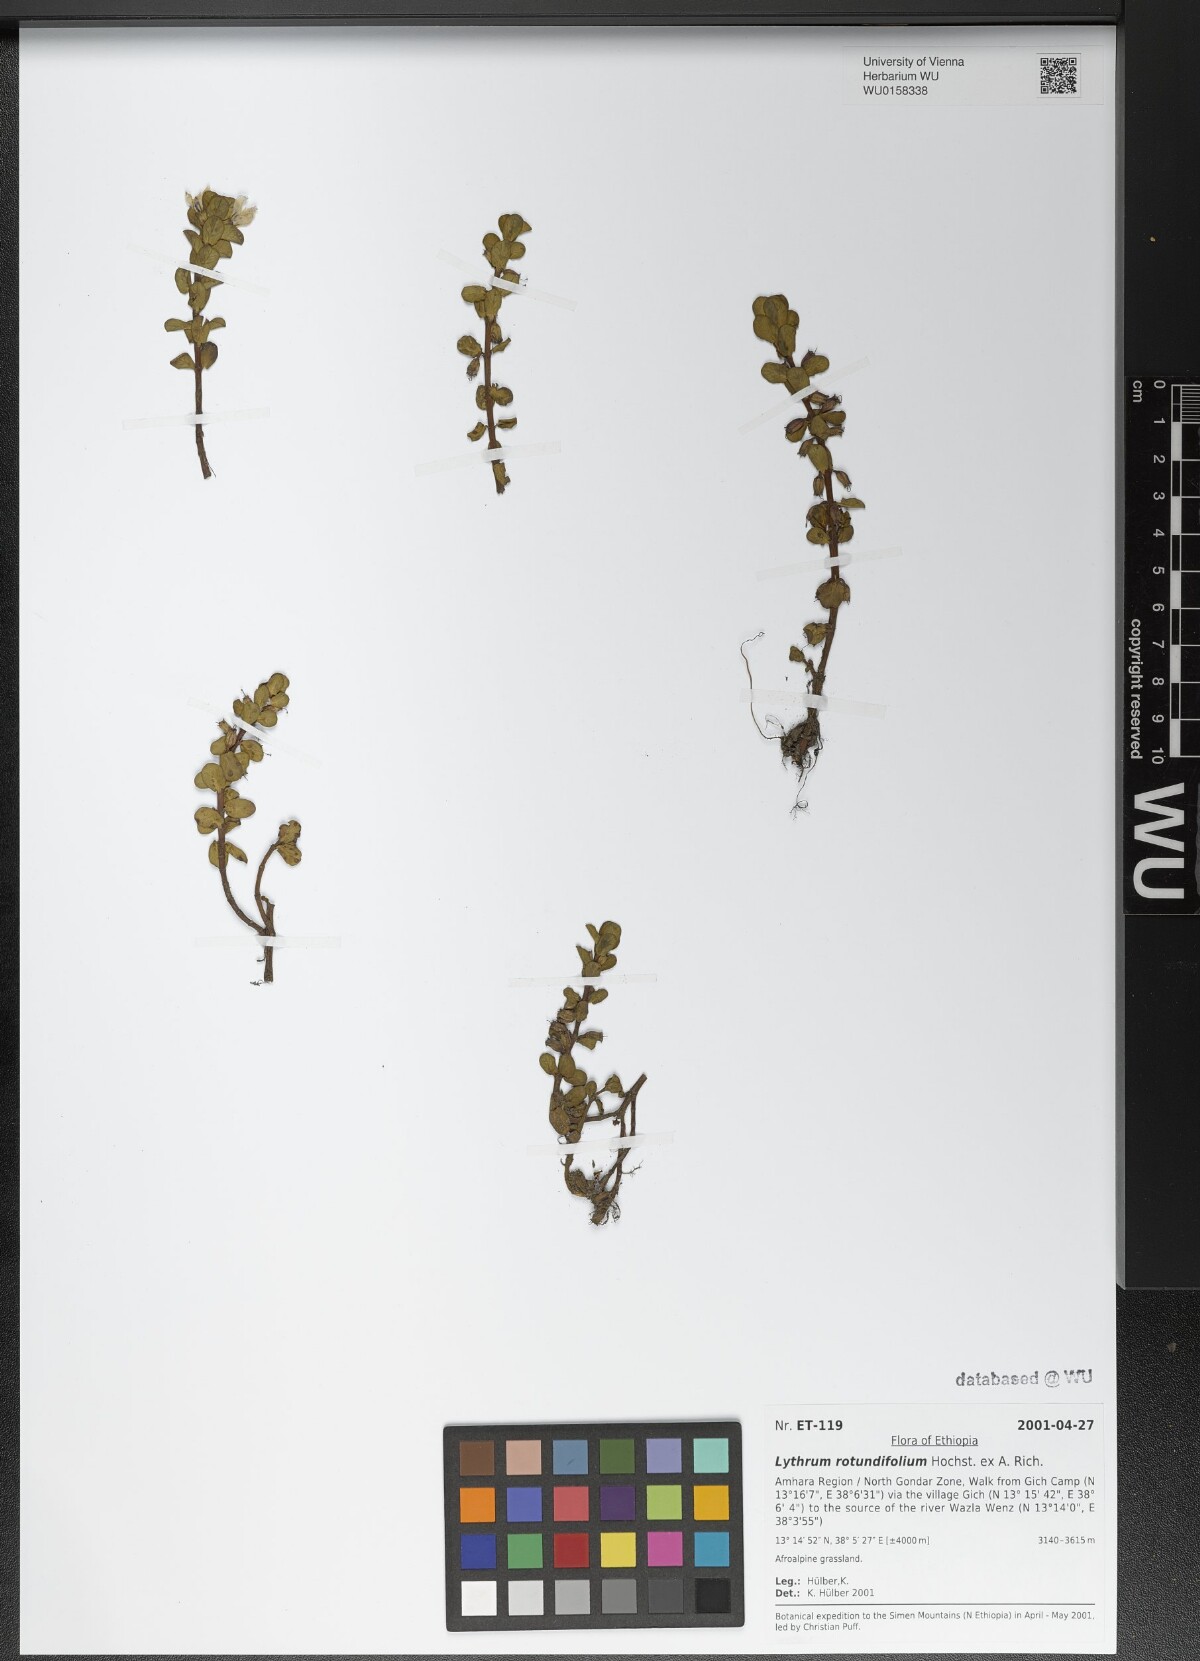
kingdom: Plantae
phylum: Tracheophyta
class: Magnoliopsida
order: Myrtales
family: Lythraceae
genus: Lythrum
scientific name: Lythrum rotundifolium
